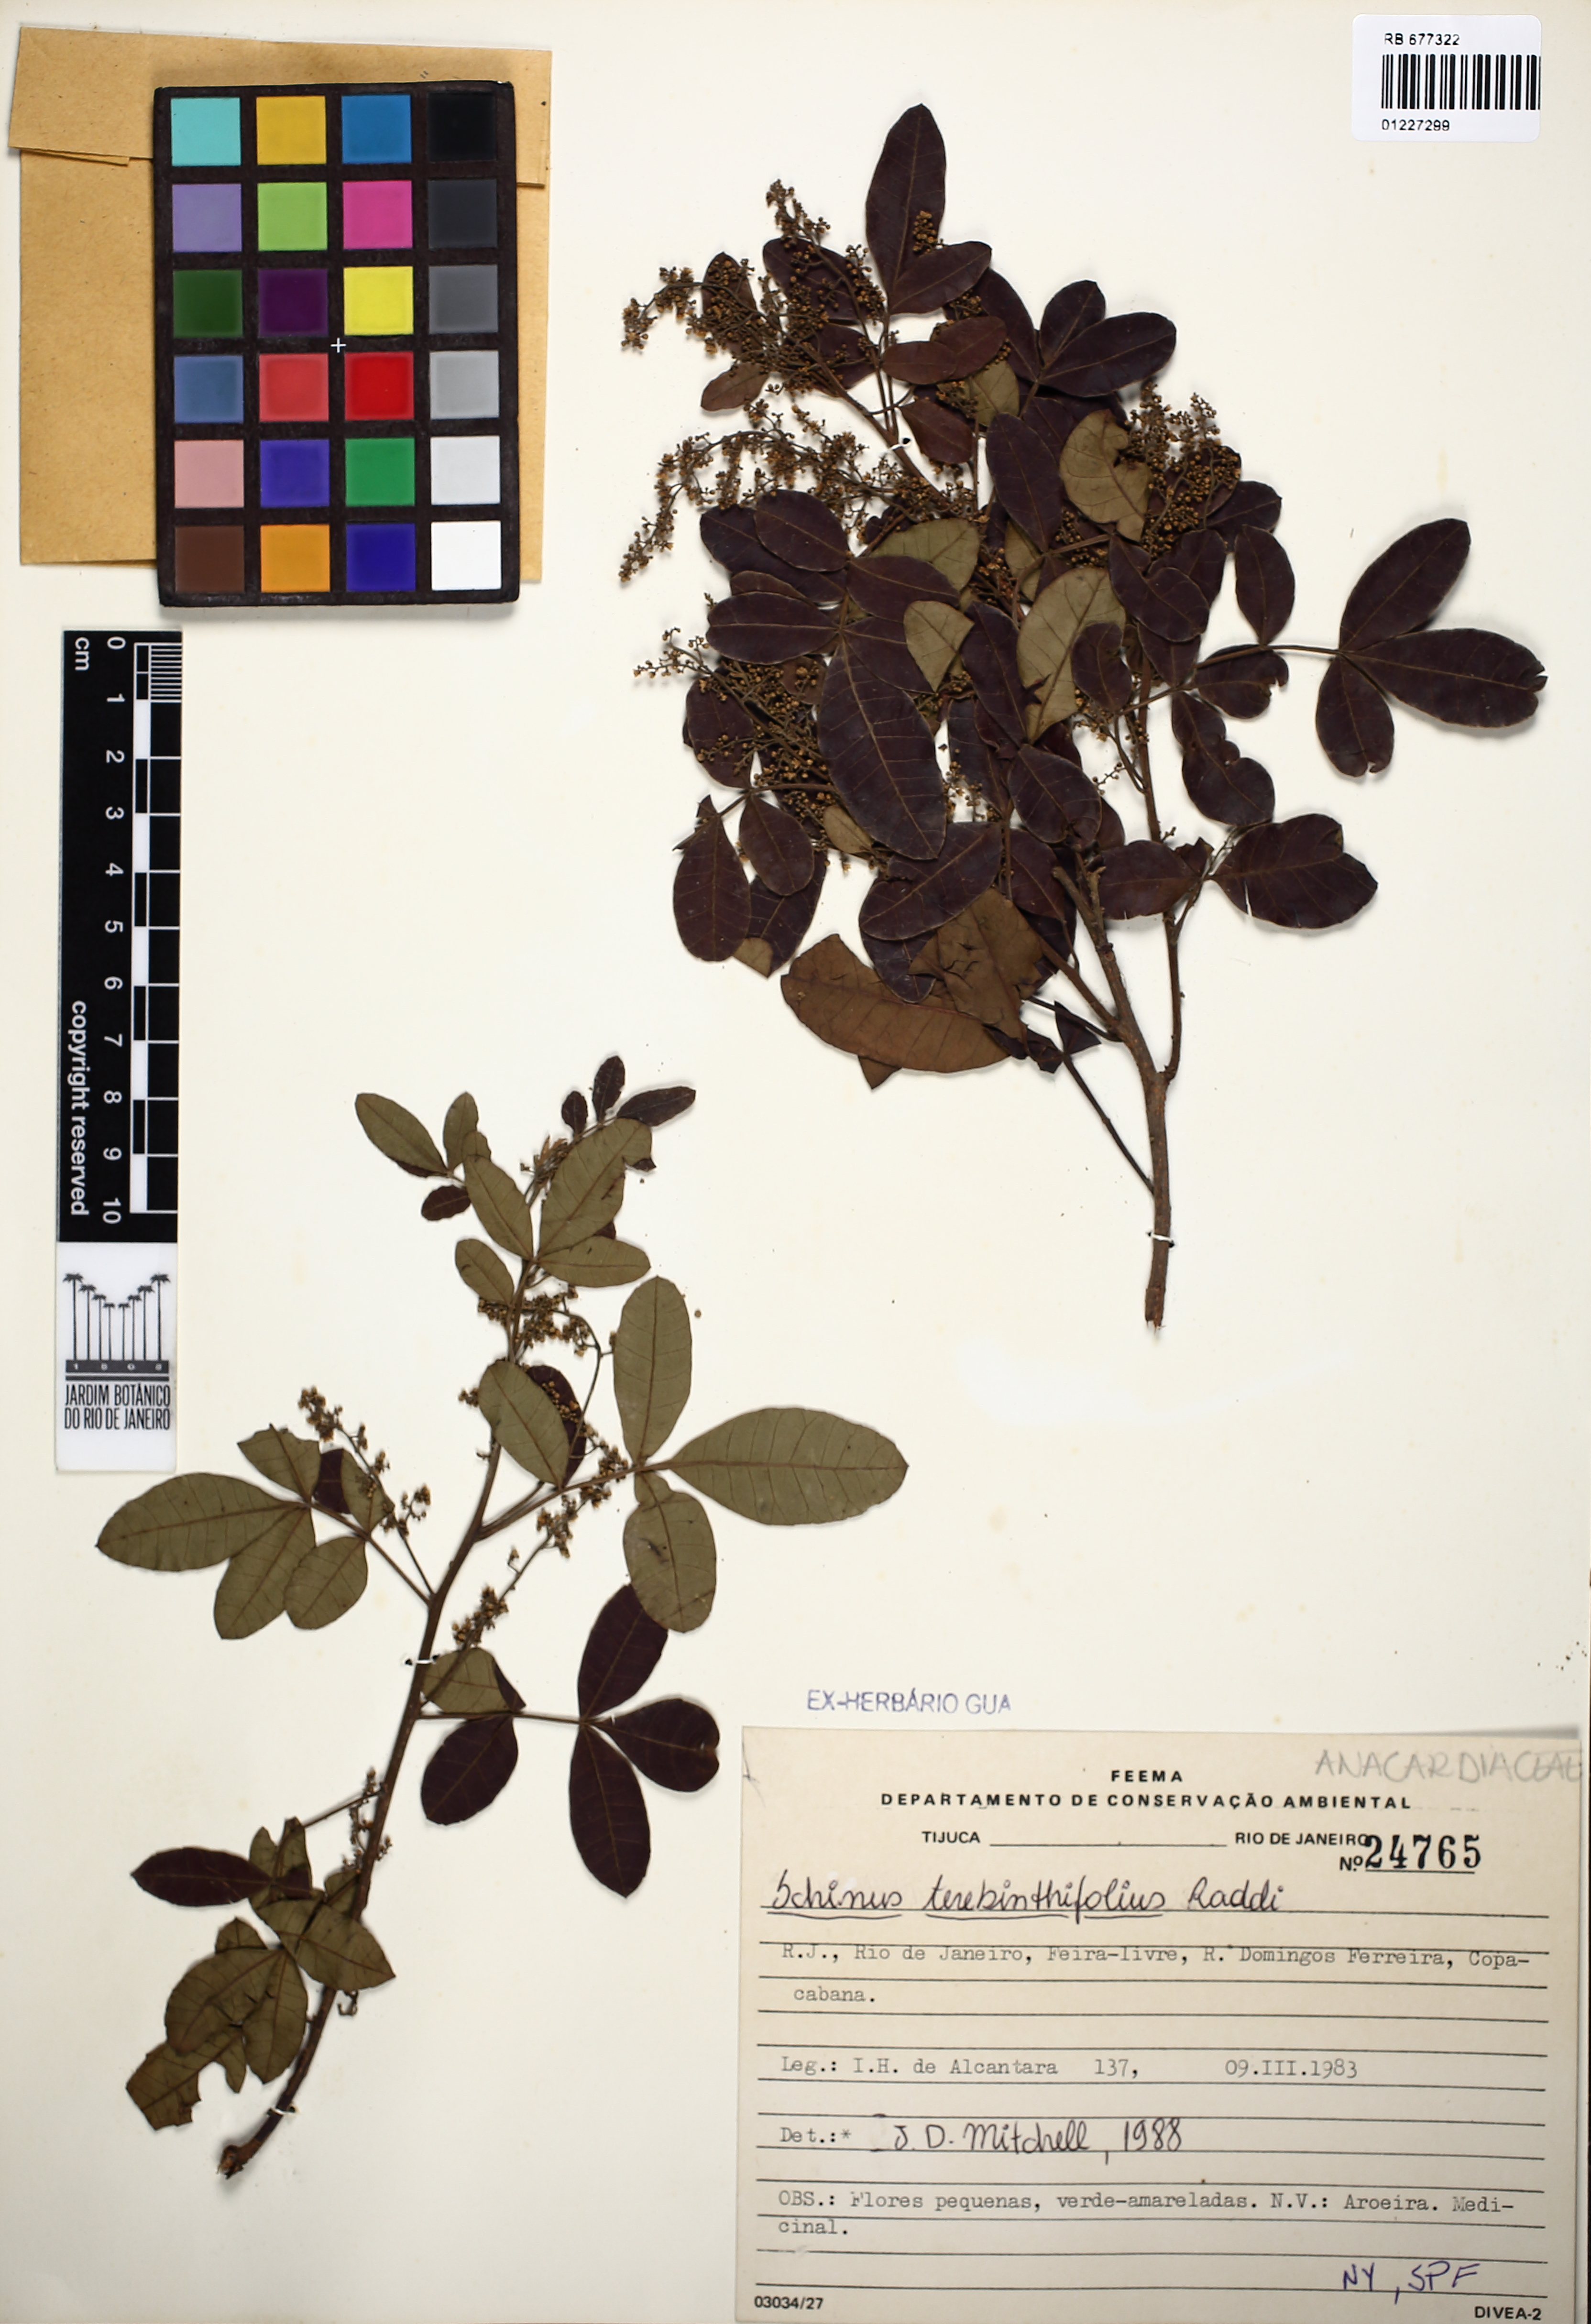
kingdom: Plantae
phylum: Tracheophyta
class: Magnoliopsida
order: Sapindales
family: Anacardiaceae
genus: Schinus
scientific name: Schinus terebinthifolia
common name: Brazilian peppertree
